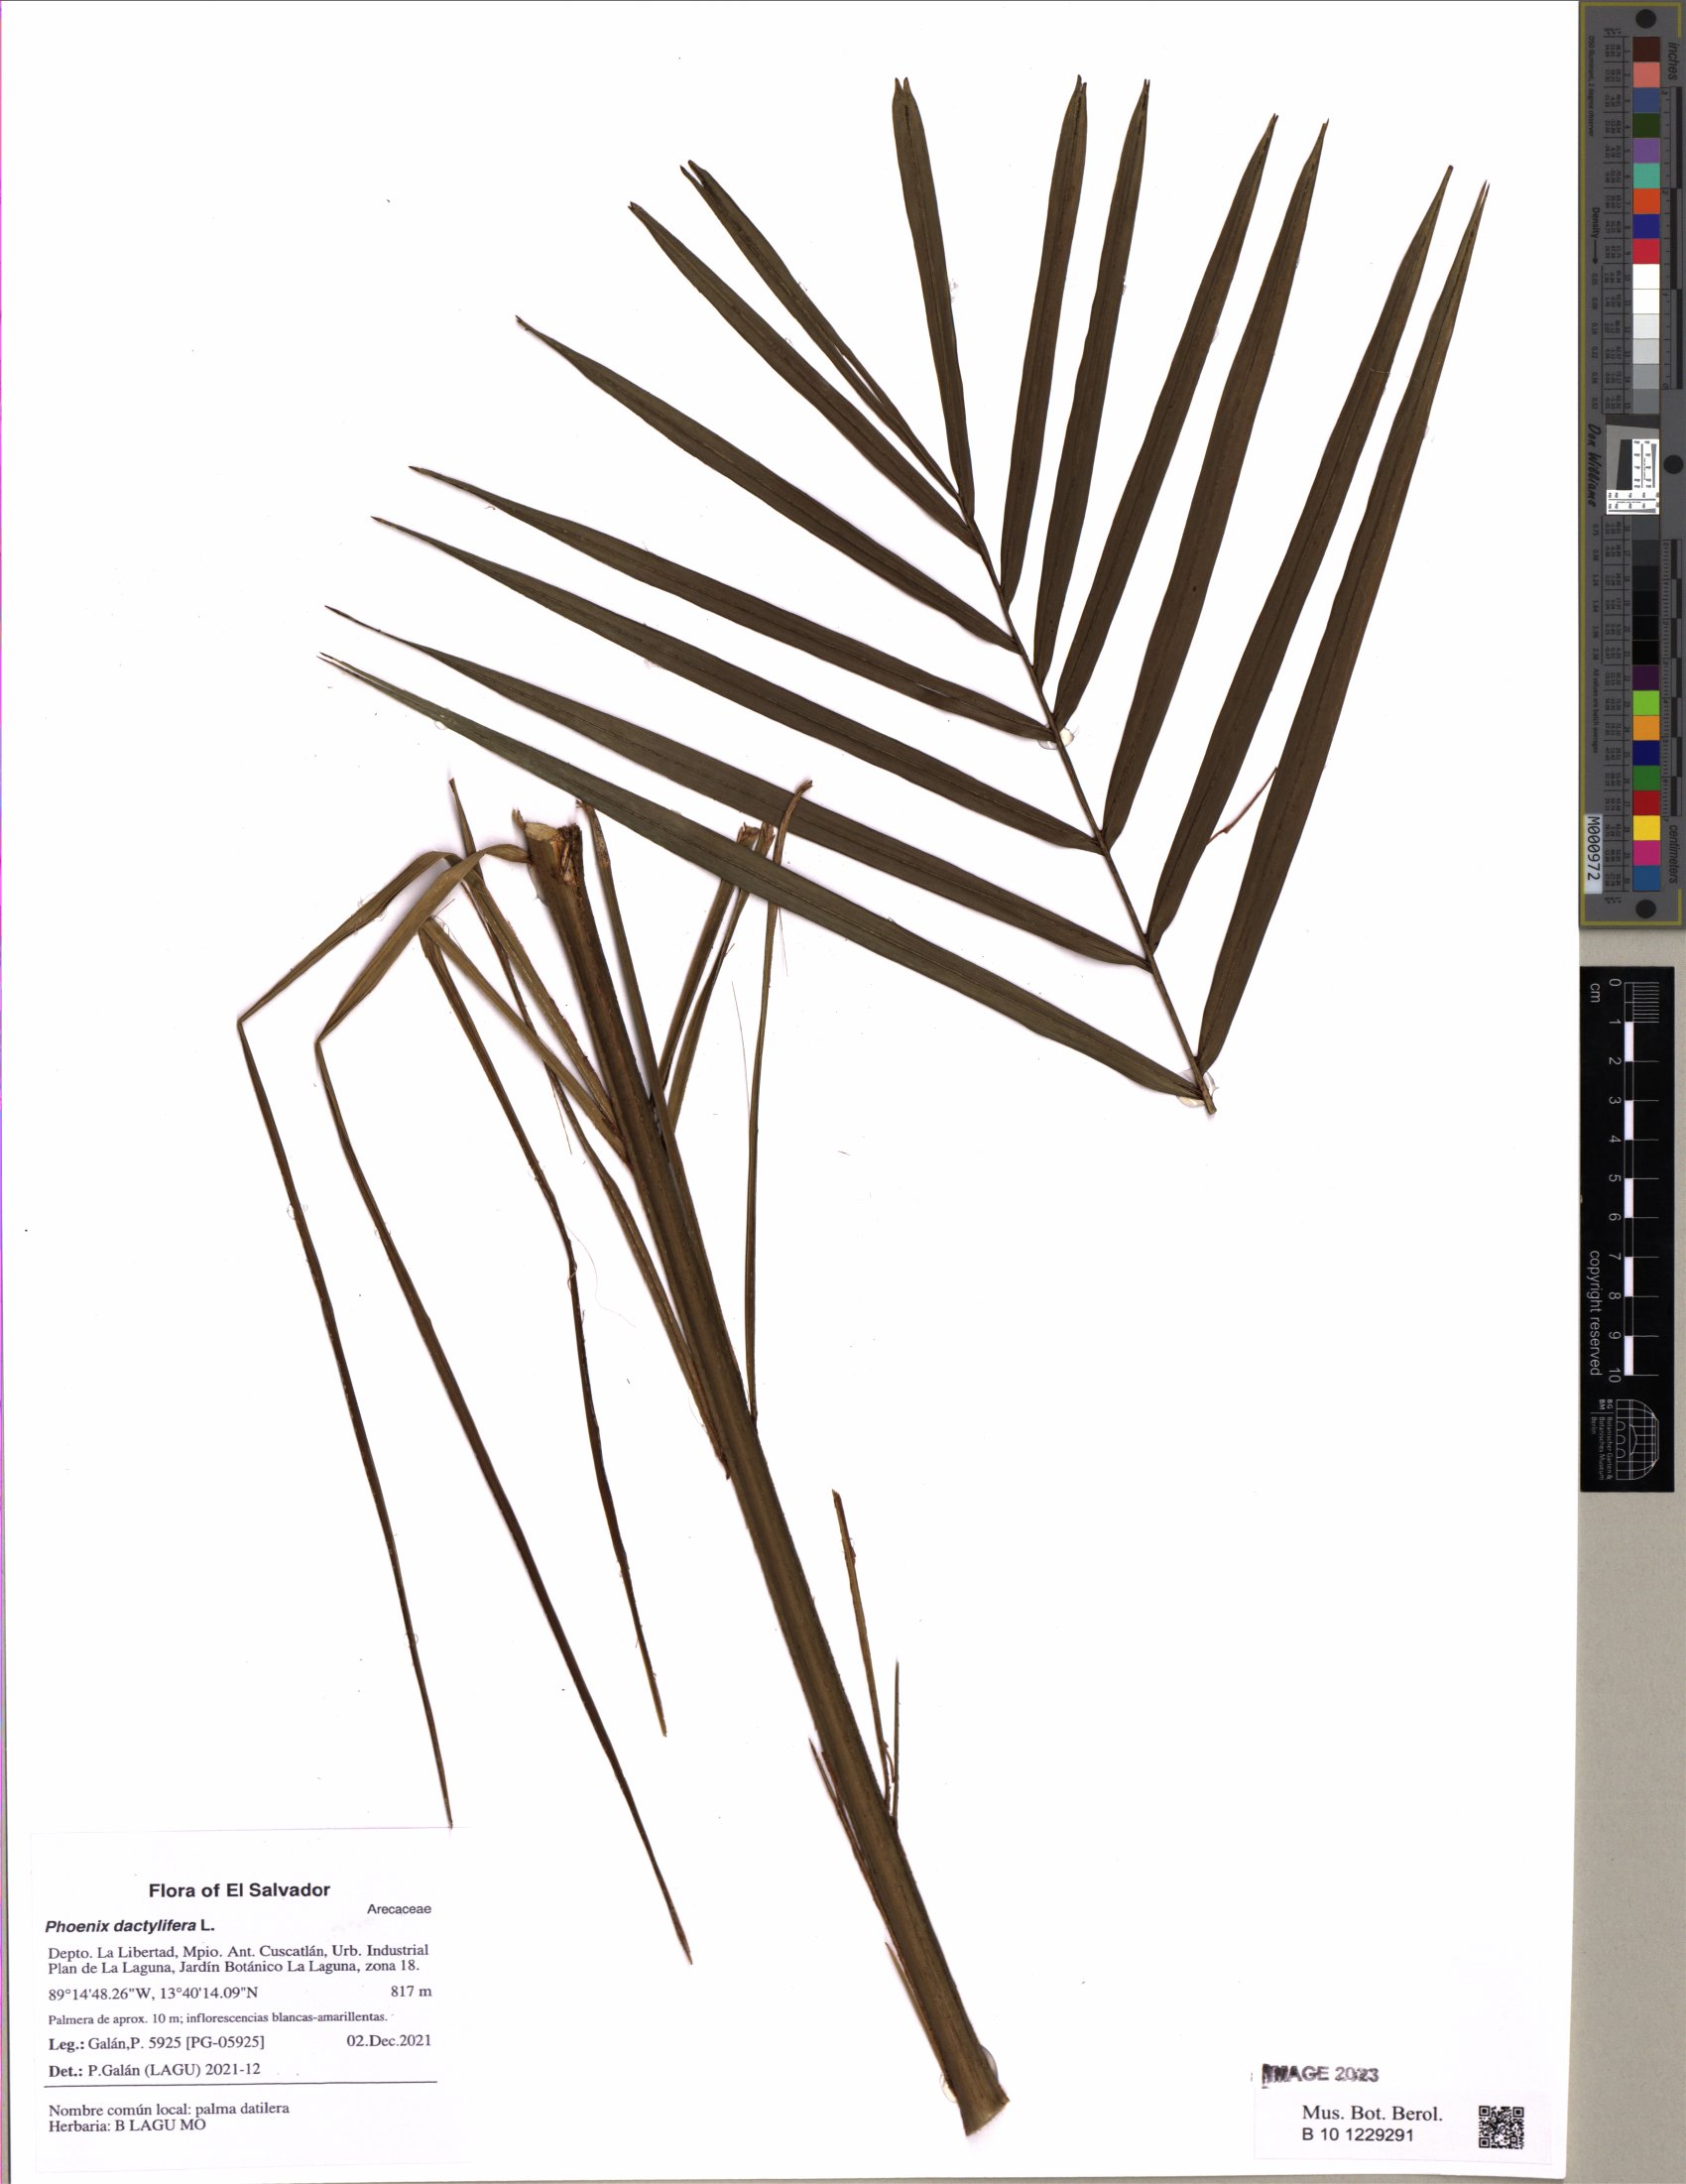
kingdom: Plantae
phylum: Tracheophyta
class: Liliopsida
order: Arecales
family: Arecaceae
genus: Phoenix
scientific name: Phoenix reclinata
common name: Senegal date palm
